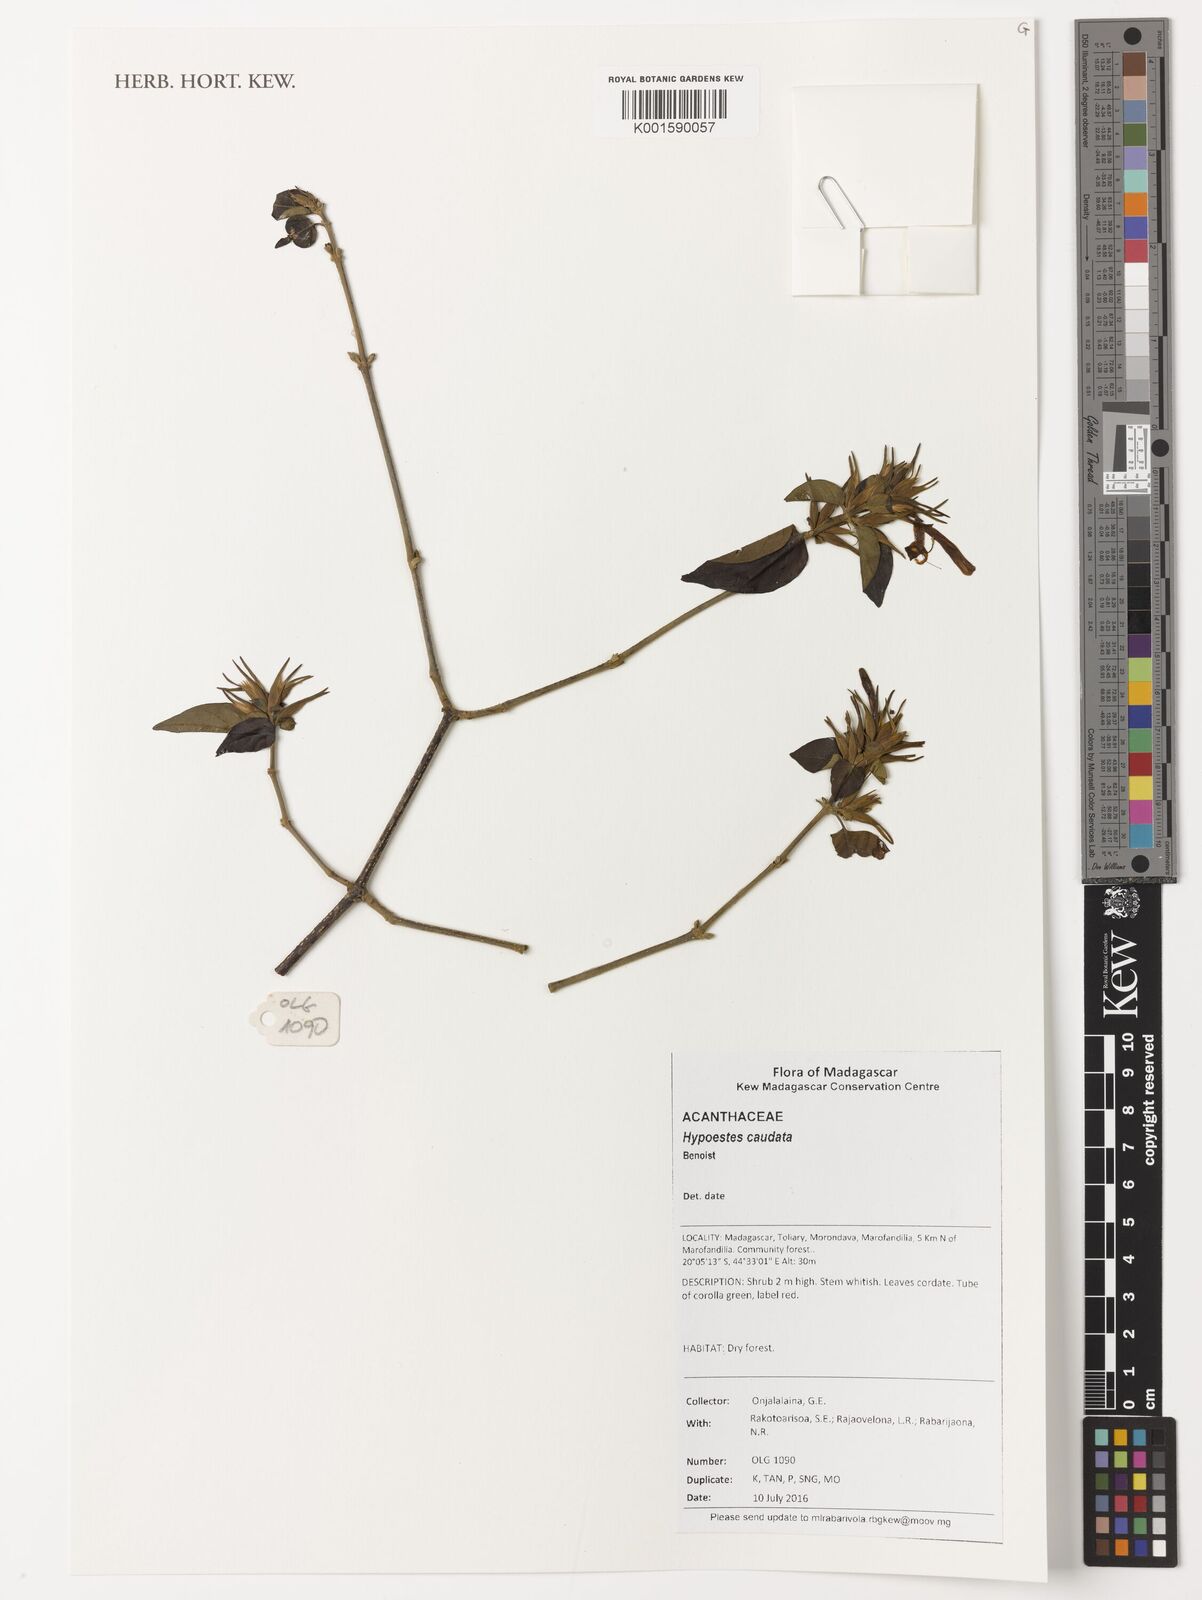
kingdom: Plantae
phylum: Tracheophyta
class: Magnoliopsida
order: Lamiales
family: Acanthaceae
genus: Hypoestes
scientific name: Hypoestes caudata
